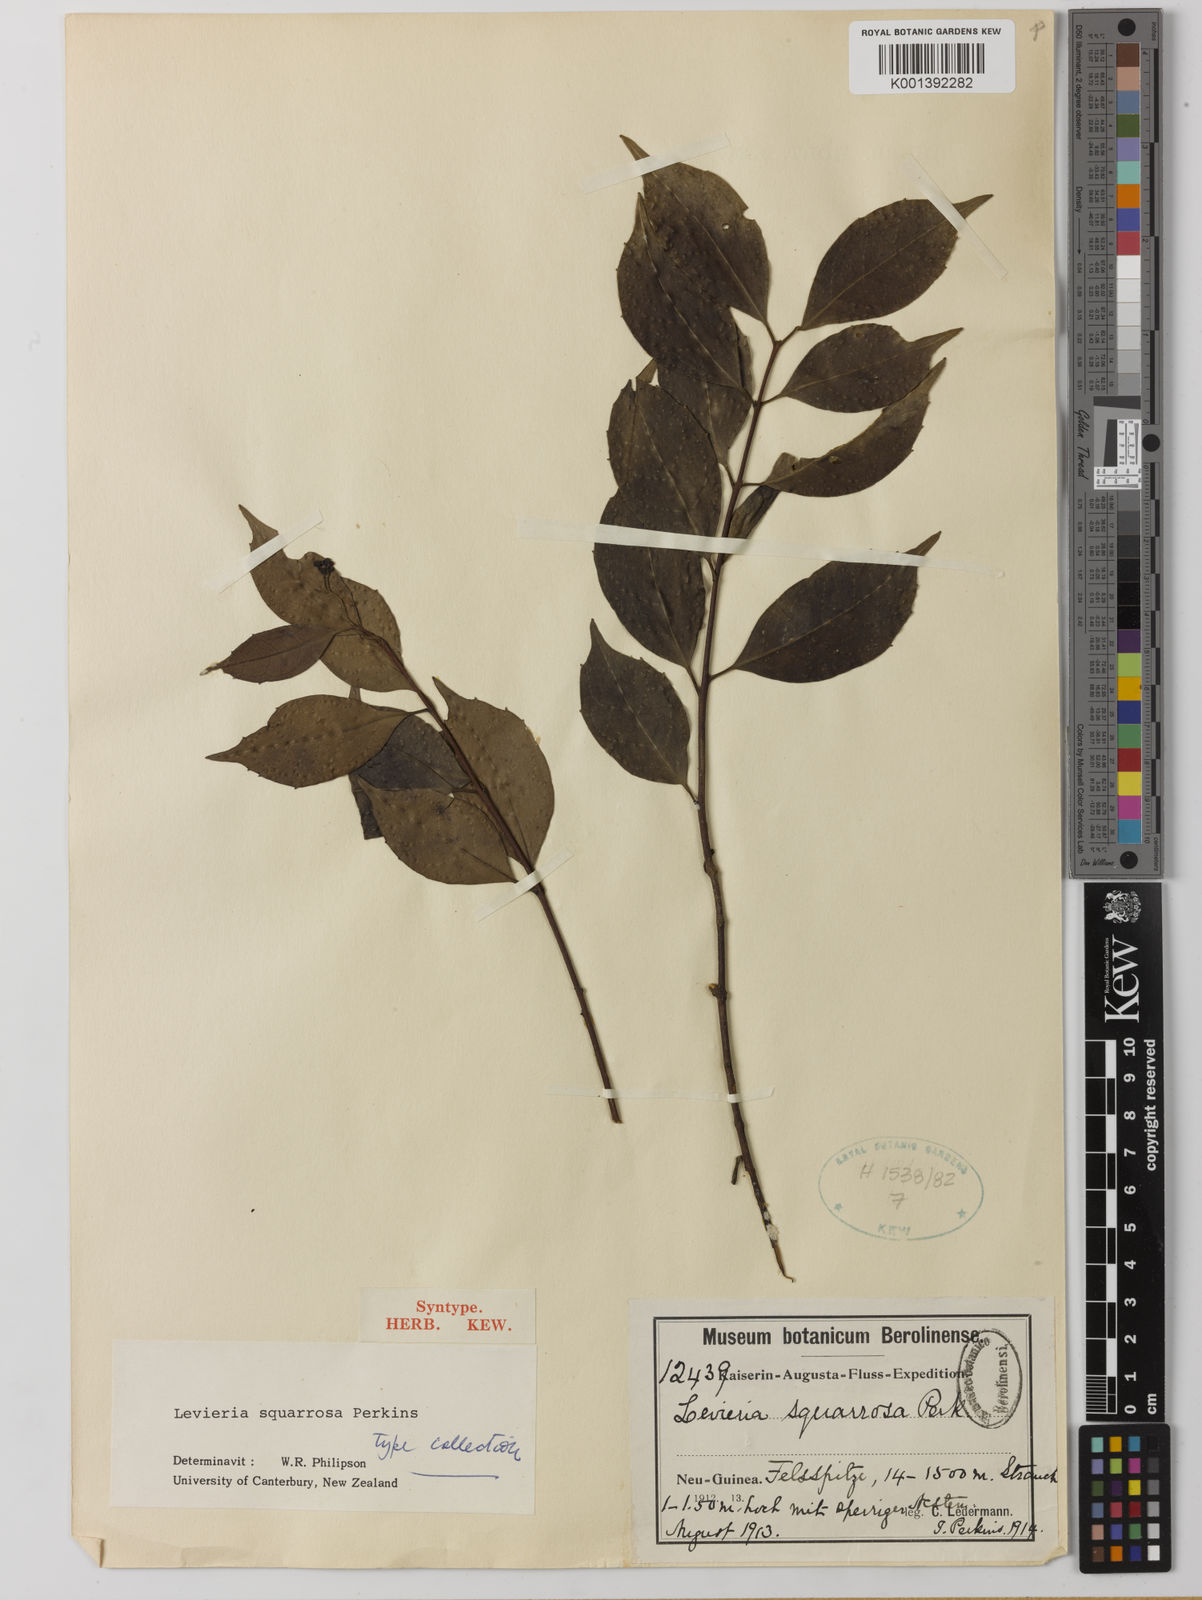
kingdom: Plantae
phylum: Tracheophyta
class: Magnoliopsida
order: Laurales
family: Monimiaceae
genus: Levieria
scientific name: Levieria squarrosa
